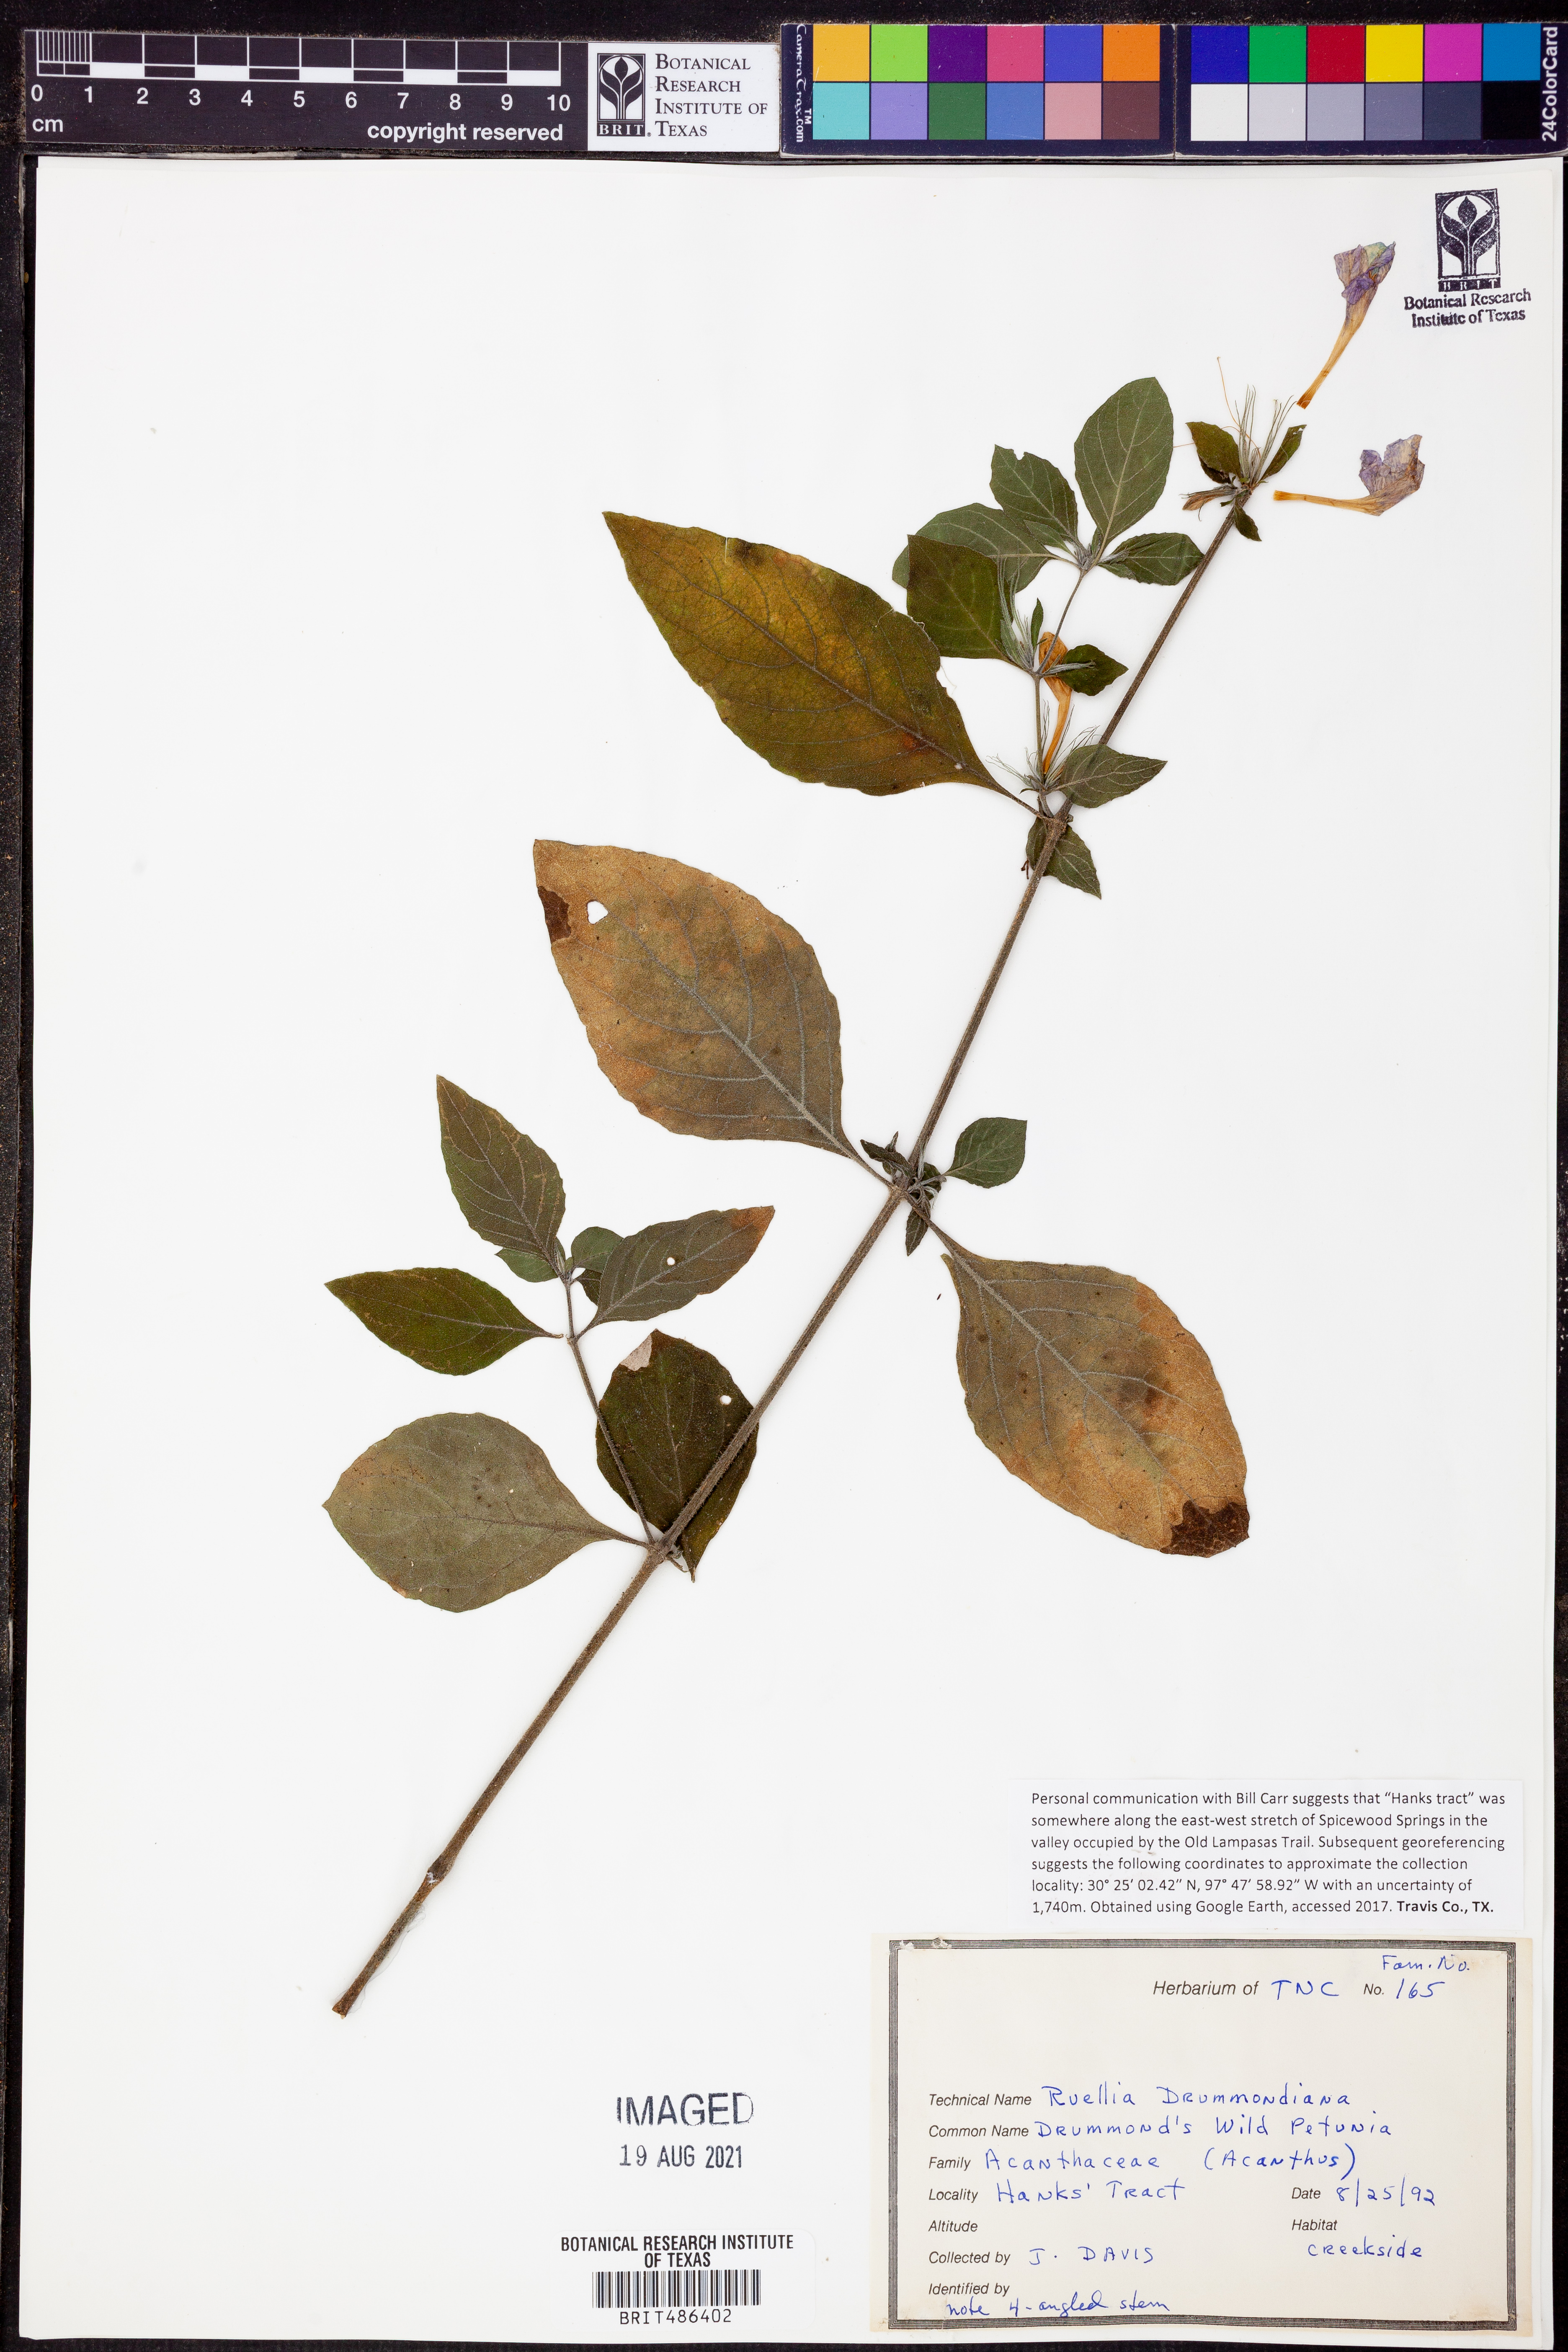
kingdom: Plantae
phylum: Tracheophyta
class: Magnoliopsida
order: Lamiales
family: Acanthaceae
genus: Ruellia
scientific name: Ruellia drummondiana
